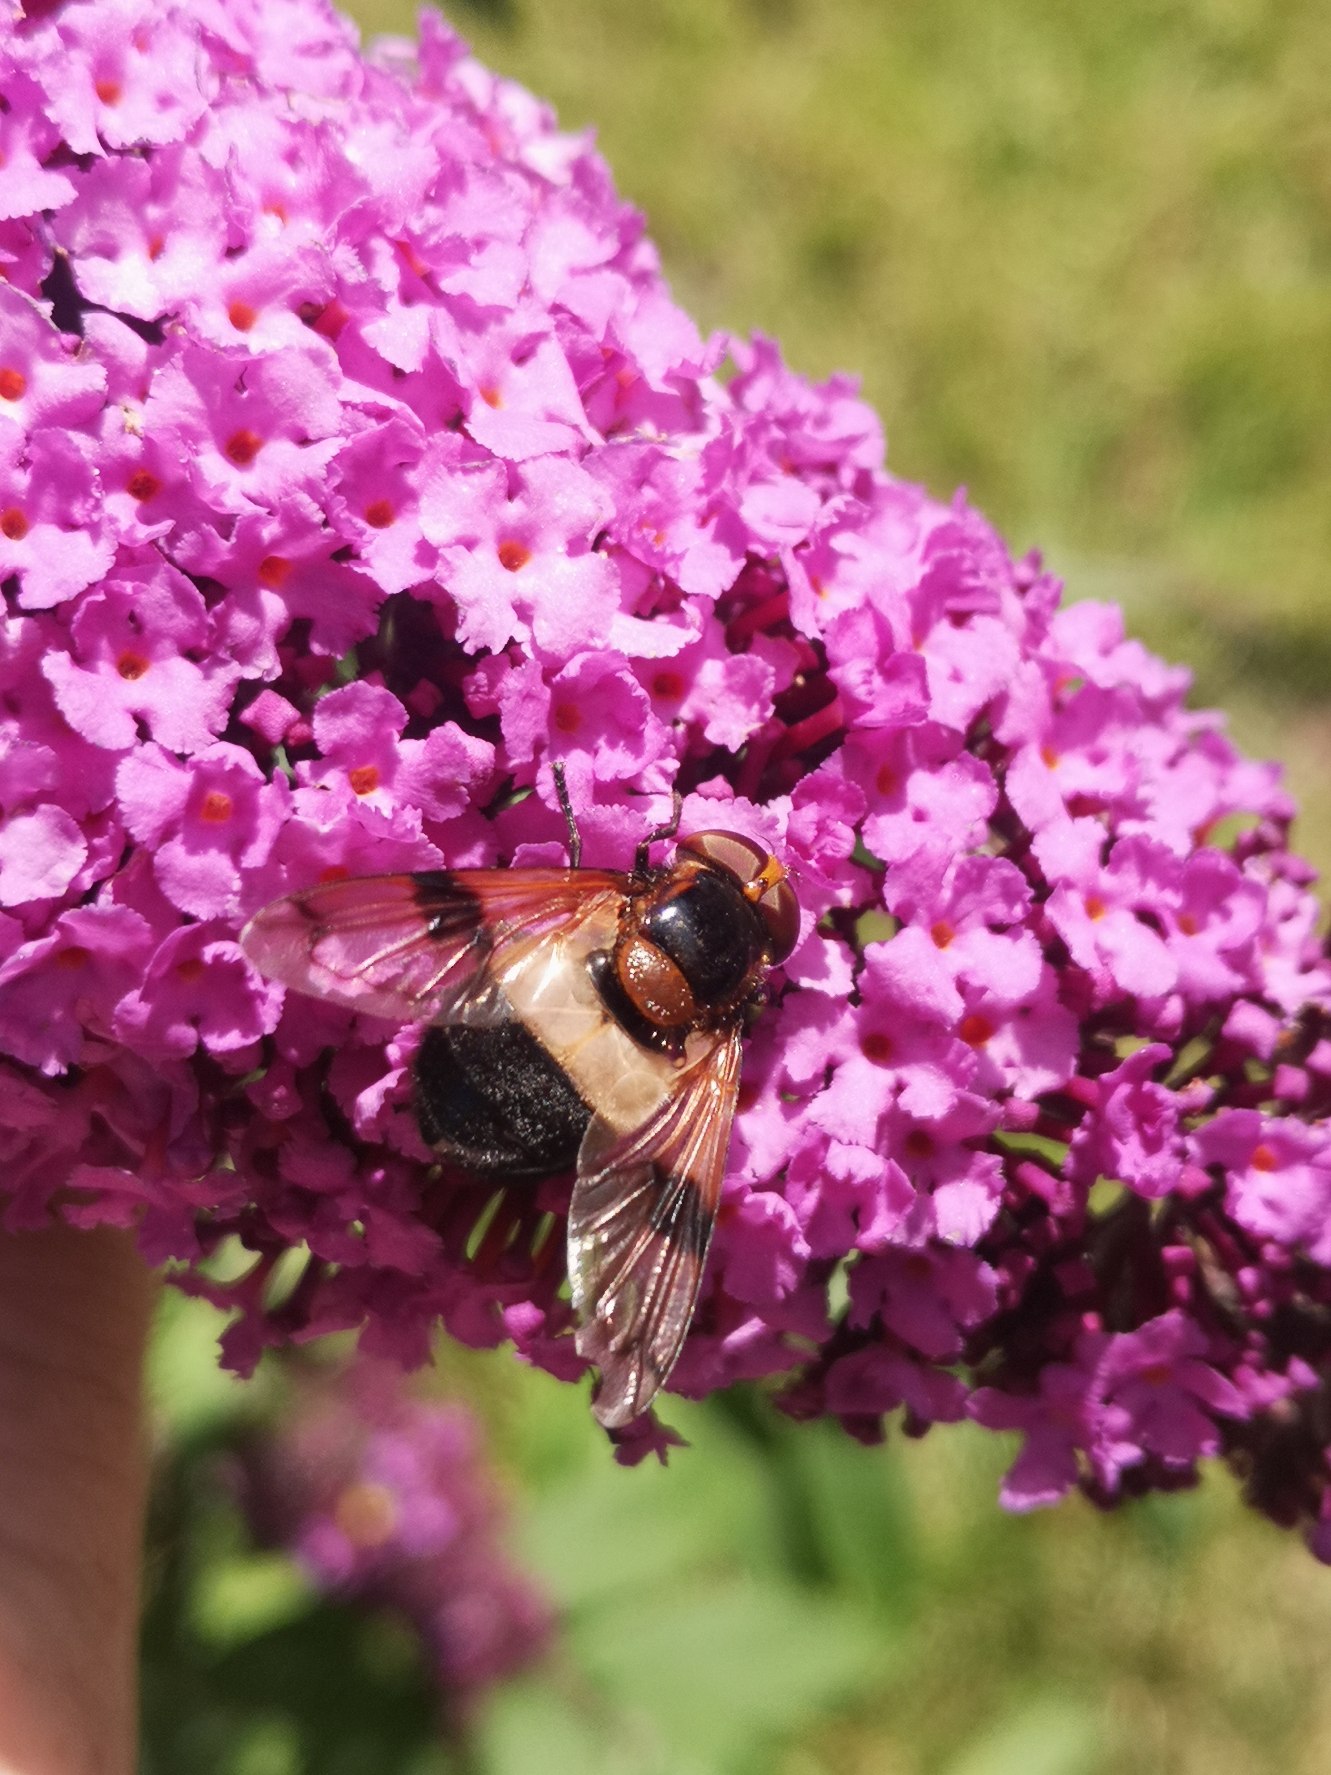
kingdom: Animalia
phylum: Arthropoda
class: Insecta
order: Diptera
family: Syrphidae
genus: Volucella
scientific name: Volucella pellucens
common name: Hvidbåndet humlesvirreflue
